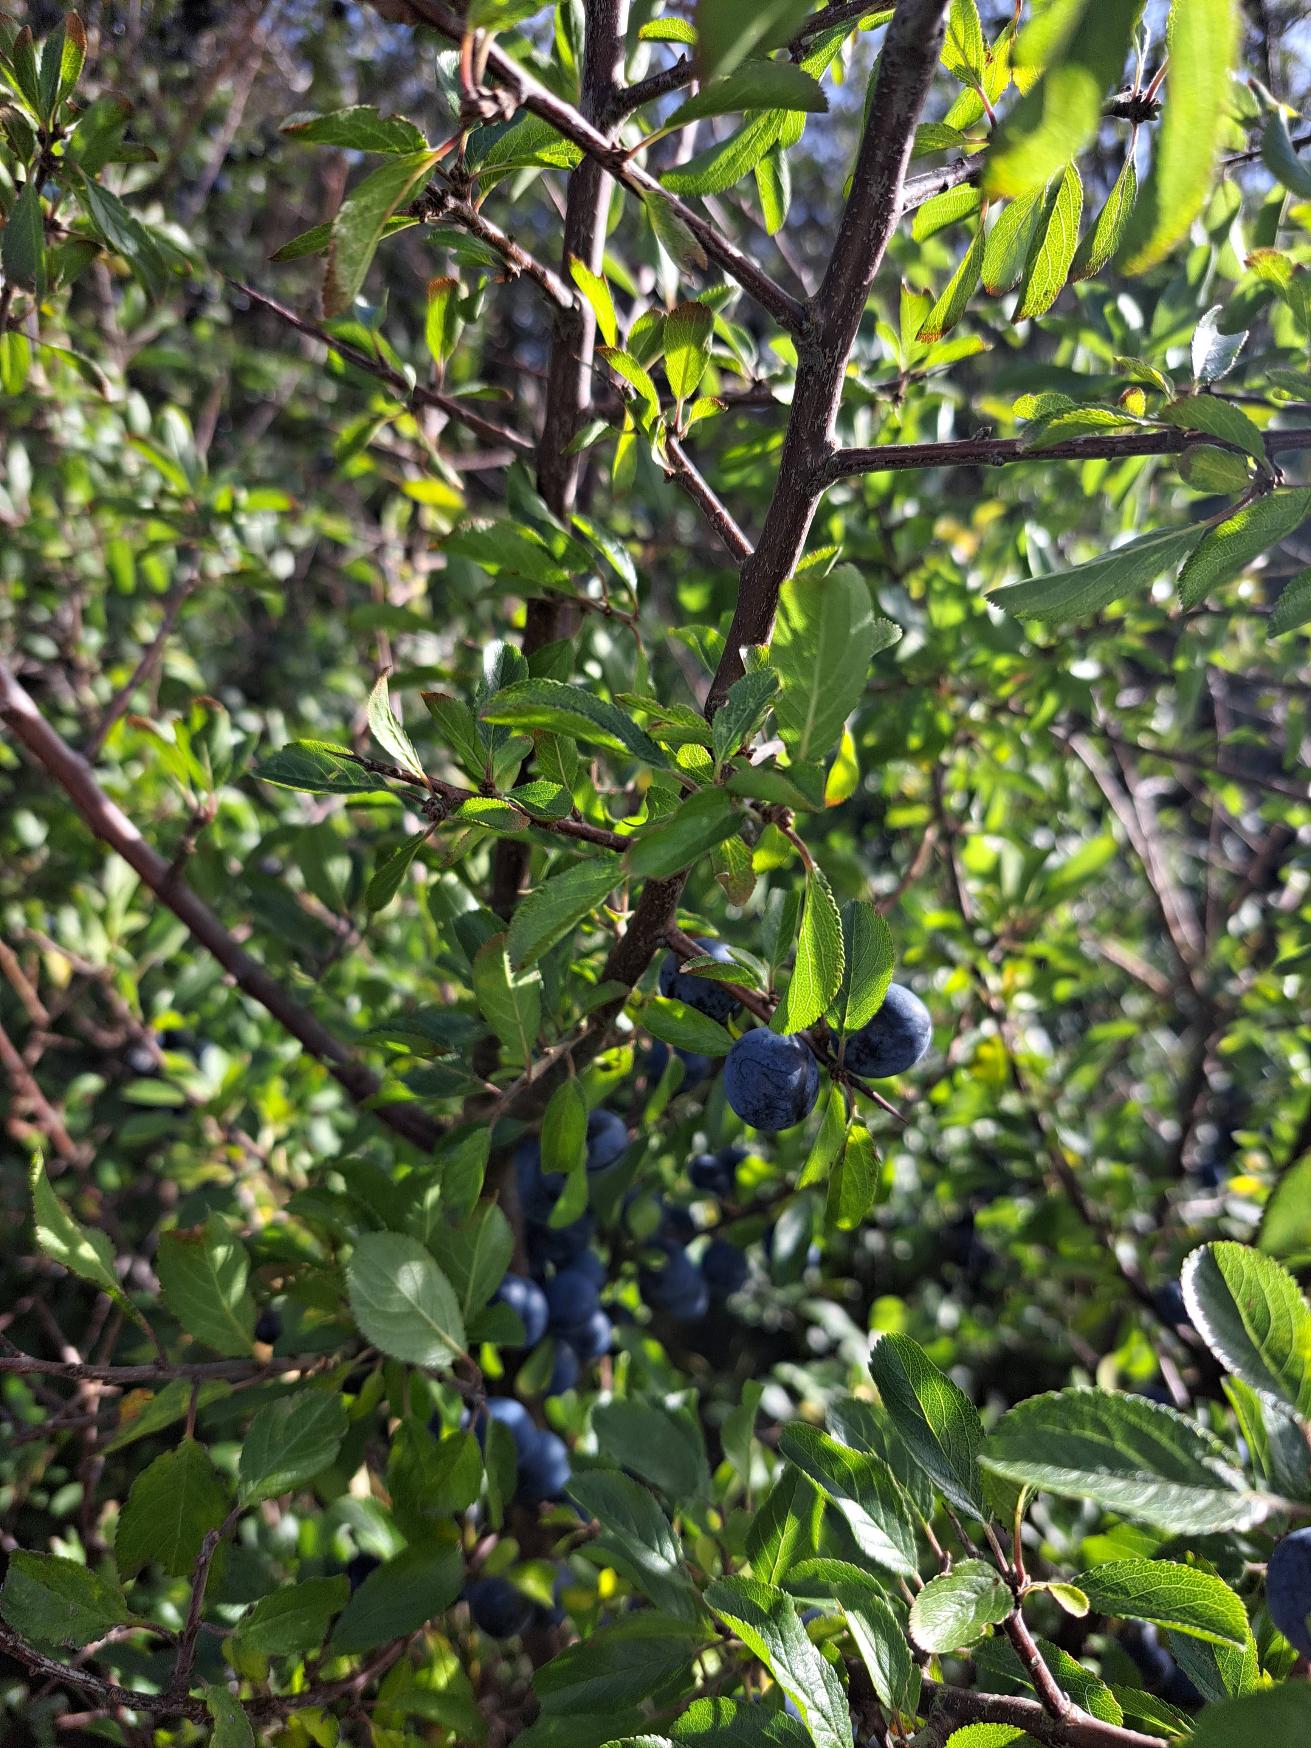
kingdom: Plantae
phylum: Tracheophyta
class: Magnoliopsida
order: Rosales
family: Rosaceae
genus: Prunus
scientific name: Prunus spinosa
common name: Slåen
